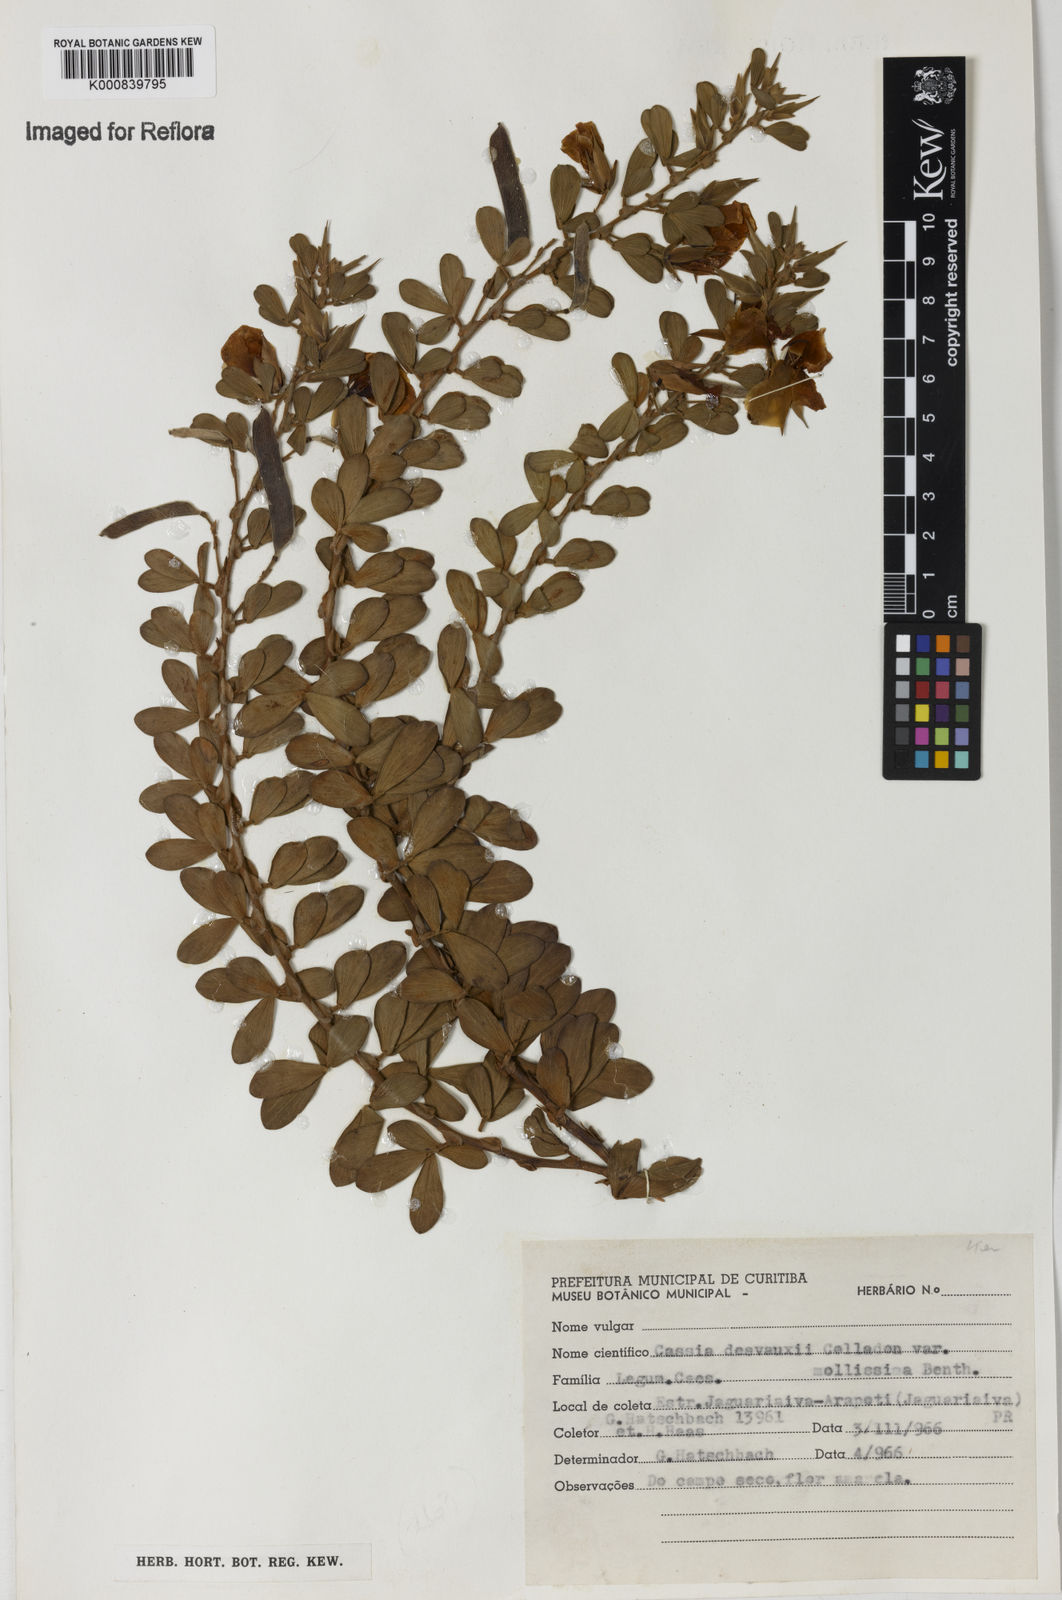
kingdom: Plantae
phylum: Tracheophyta
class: Magnoliopsida
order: Fabales
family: Fabaceae
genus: Chamaecrista
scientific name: Chamaecrista
